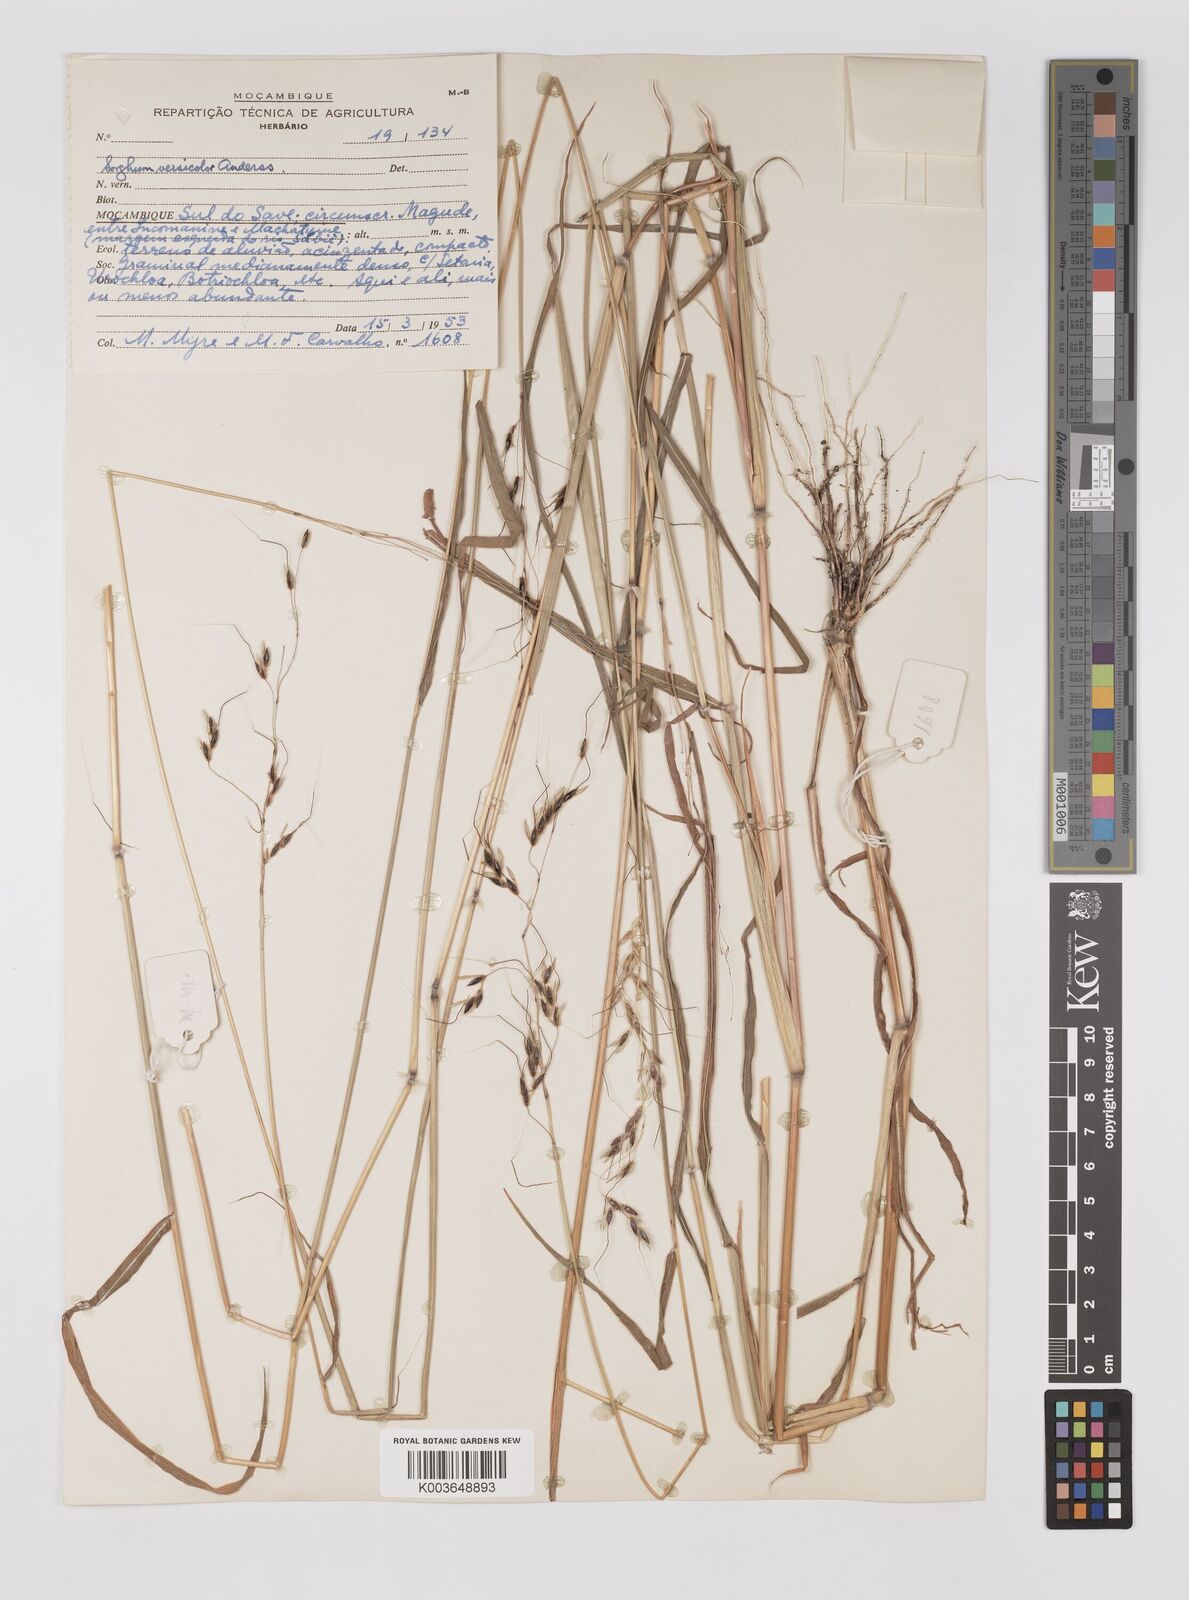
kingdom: Plantae
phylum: Tracheophyta
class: Liliopsida
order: Poales
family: Poaceae
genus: Sarga
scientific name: Sarga versicolor
